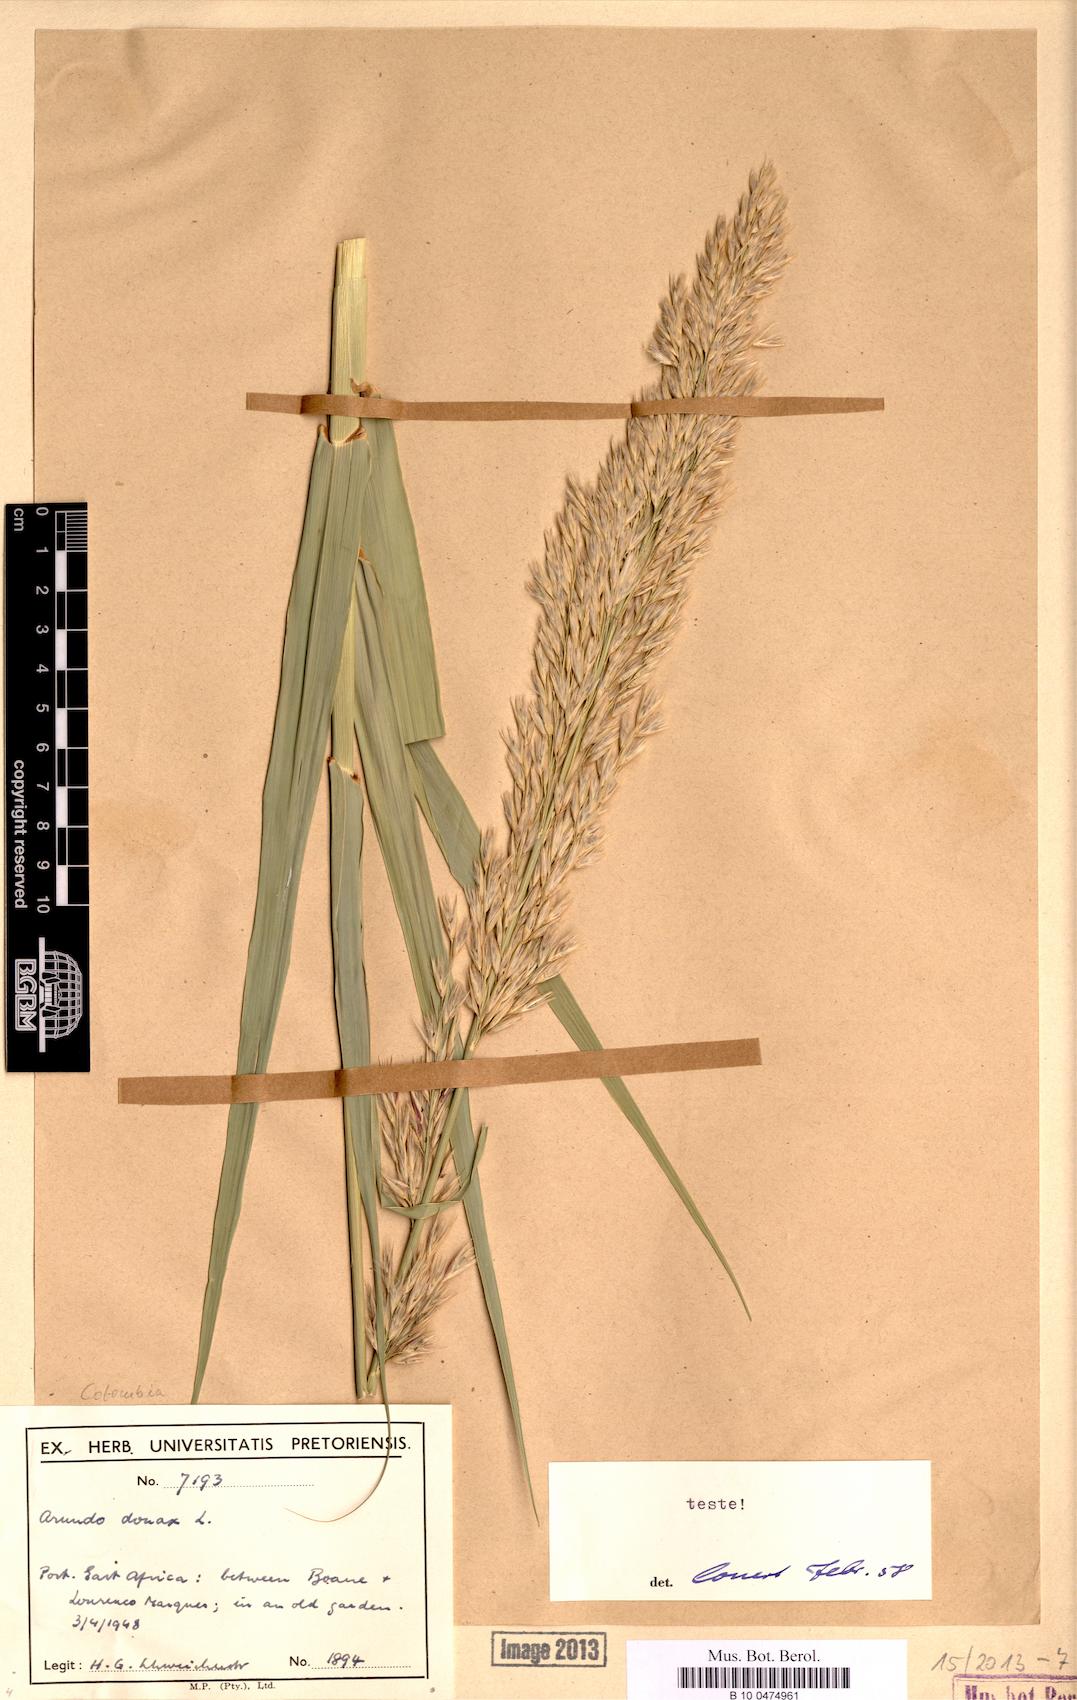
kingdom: Plantae
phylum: Tracheophyta
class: Liliopsida
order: Poales
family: Poaceae
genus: Arundo
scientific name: Arundo donax
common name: Giant reed
